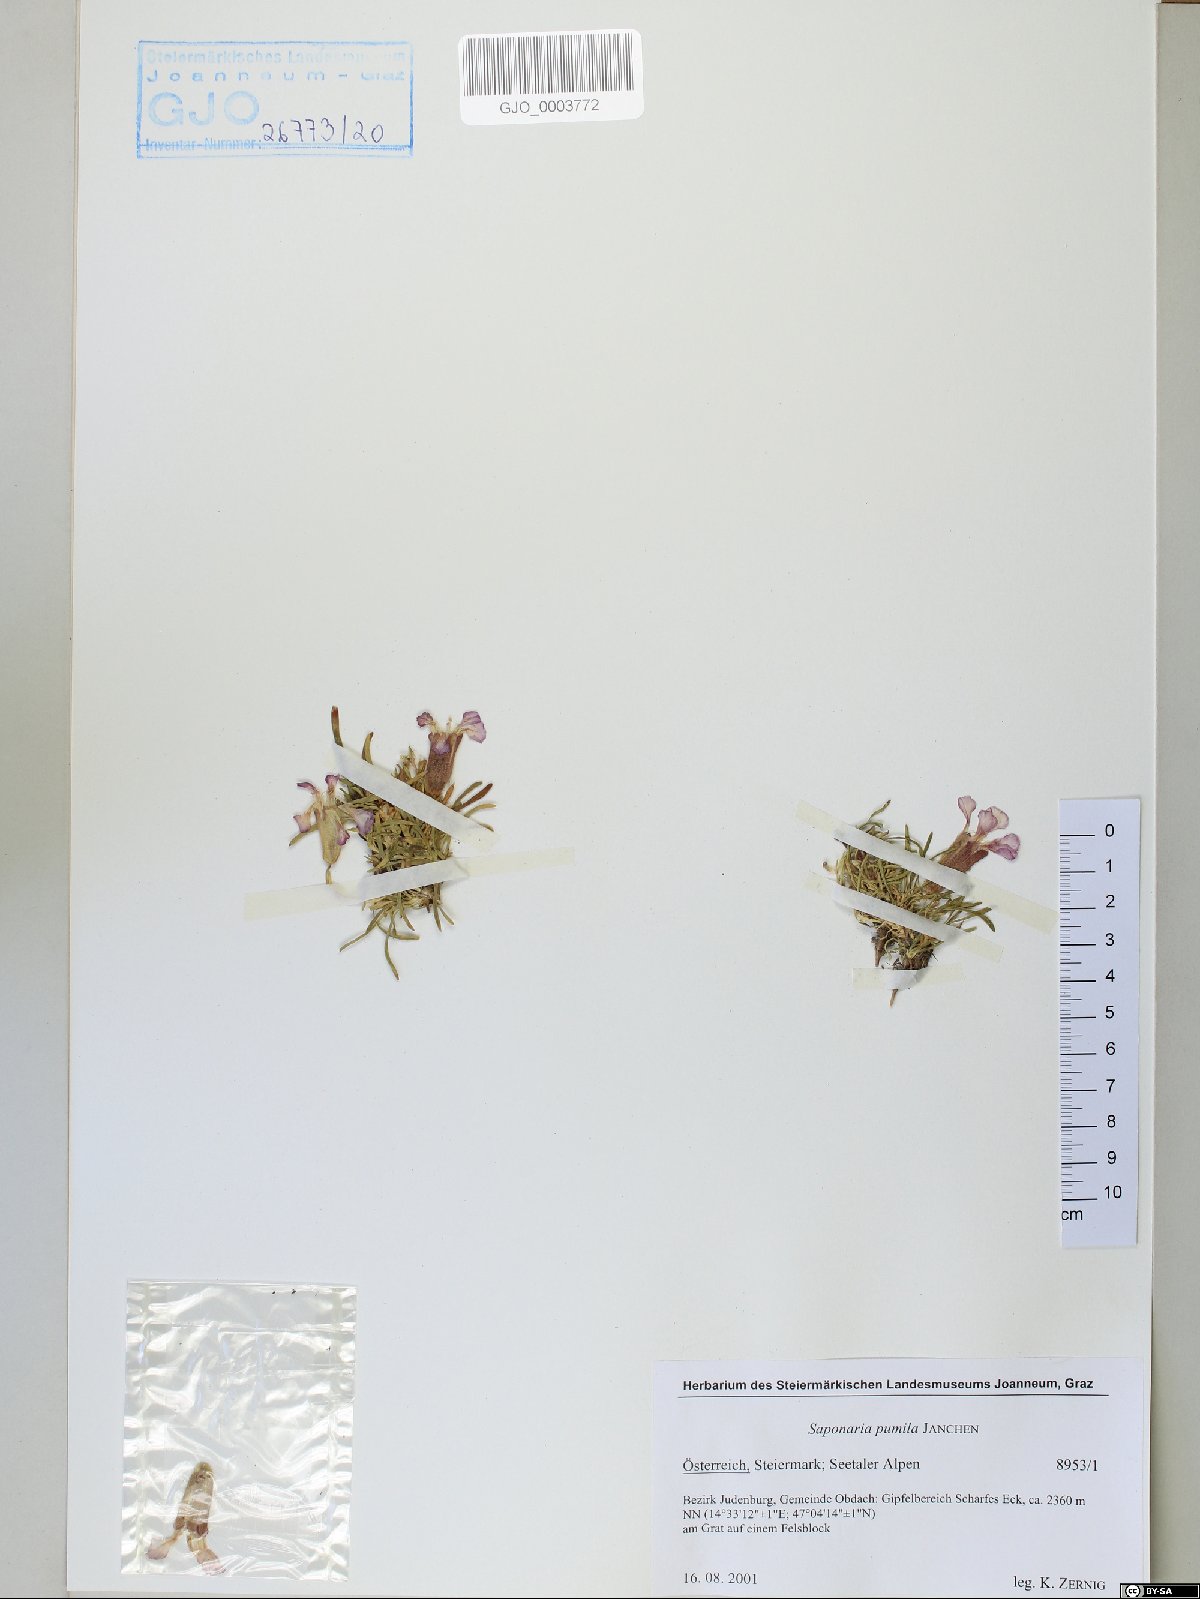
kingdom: Plantae
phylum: Tracheophyta
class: Magnoliopsida
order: Caryophyllales
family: Caryophyllaceae
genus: Saponaria
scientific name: Saponaria pumila
